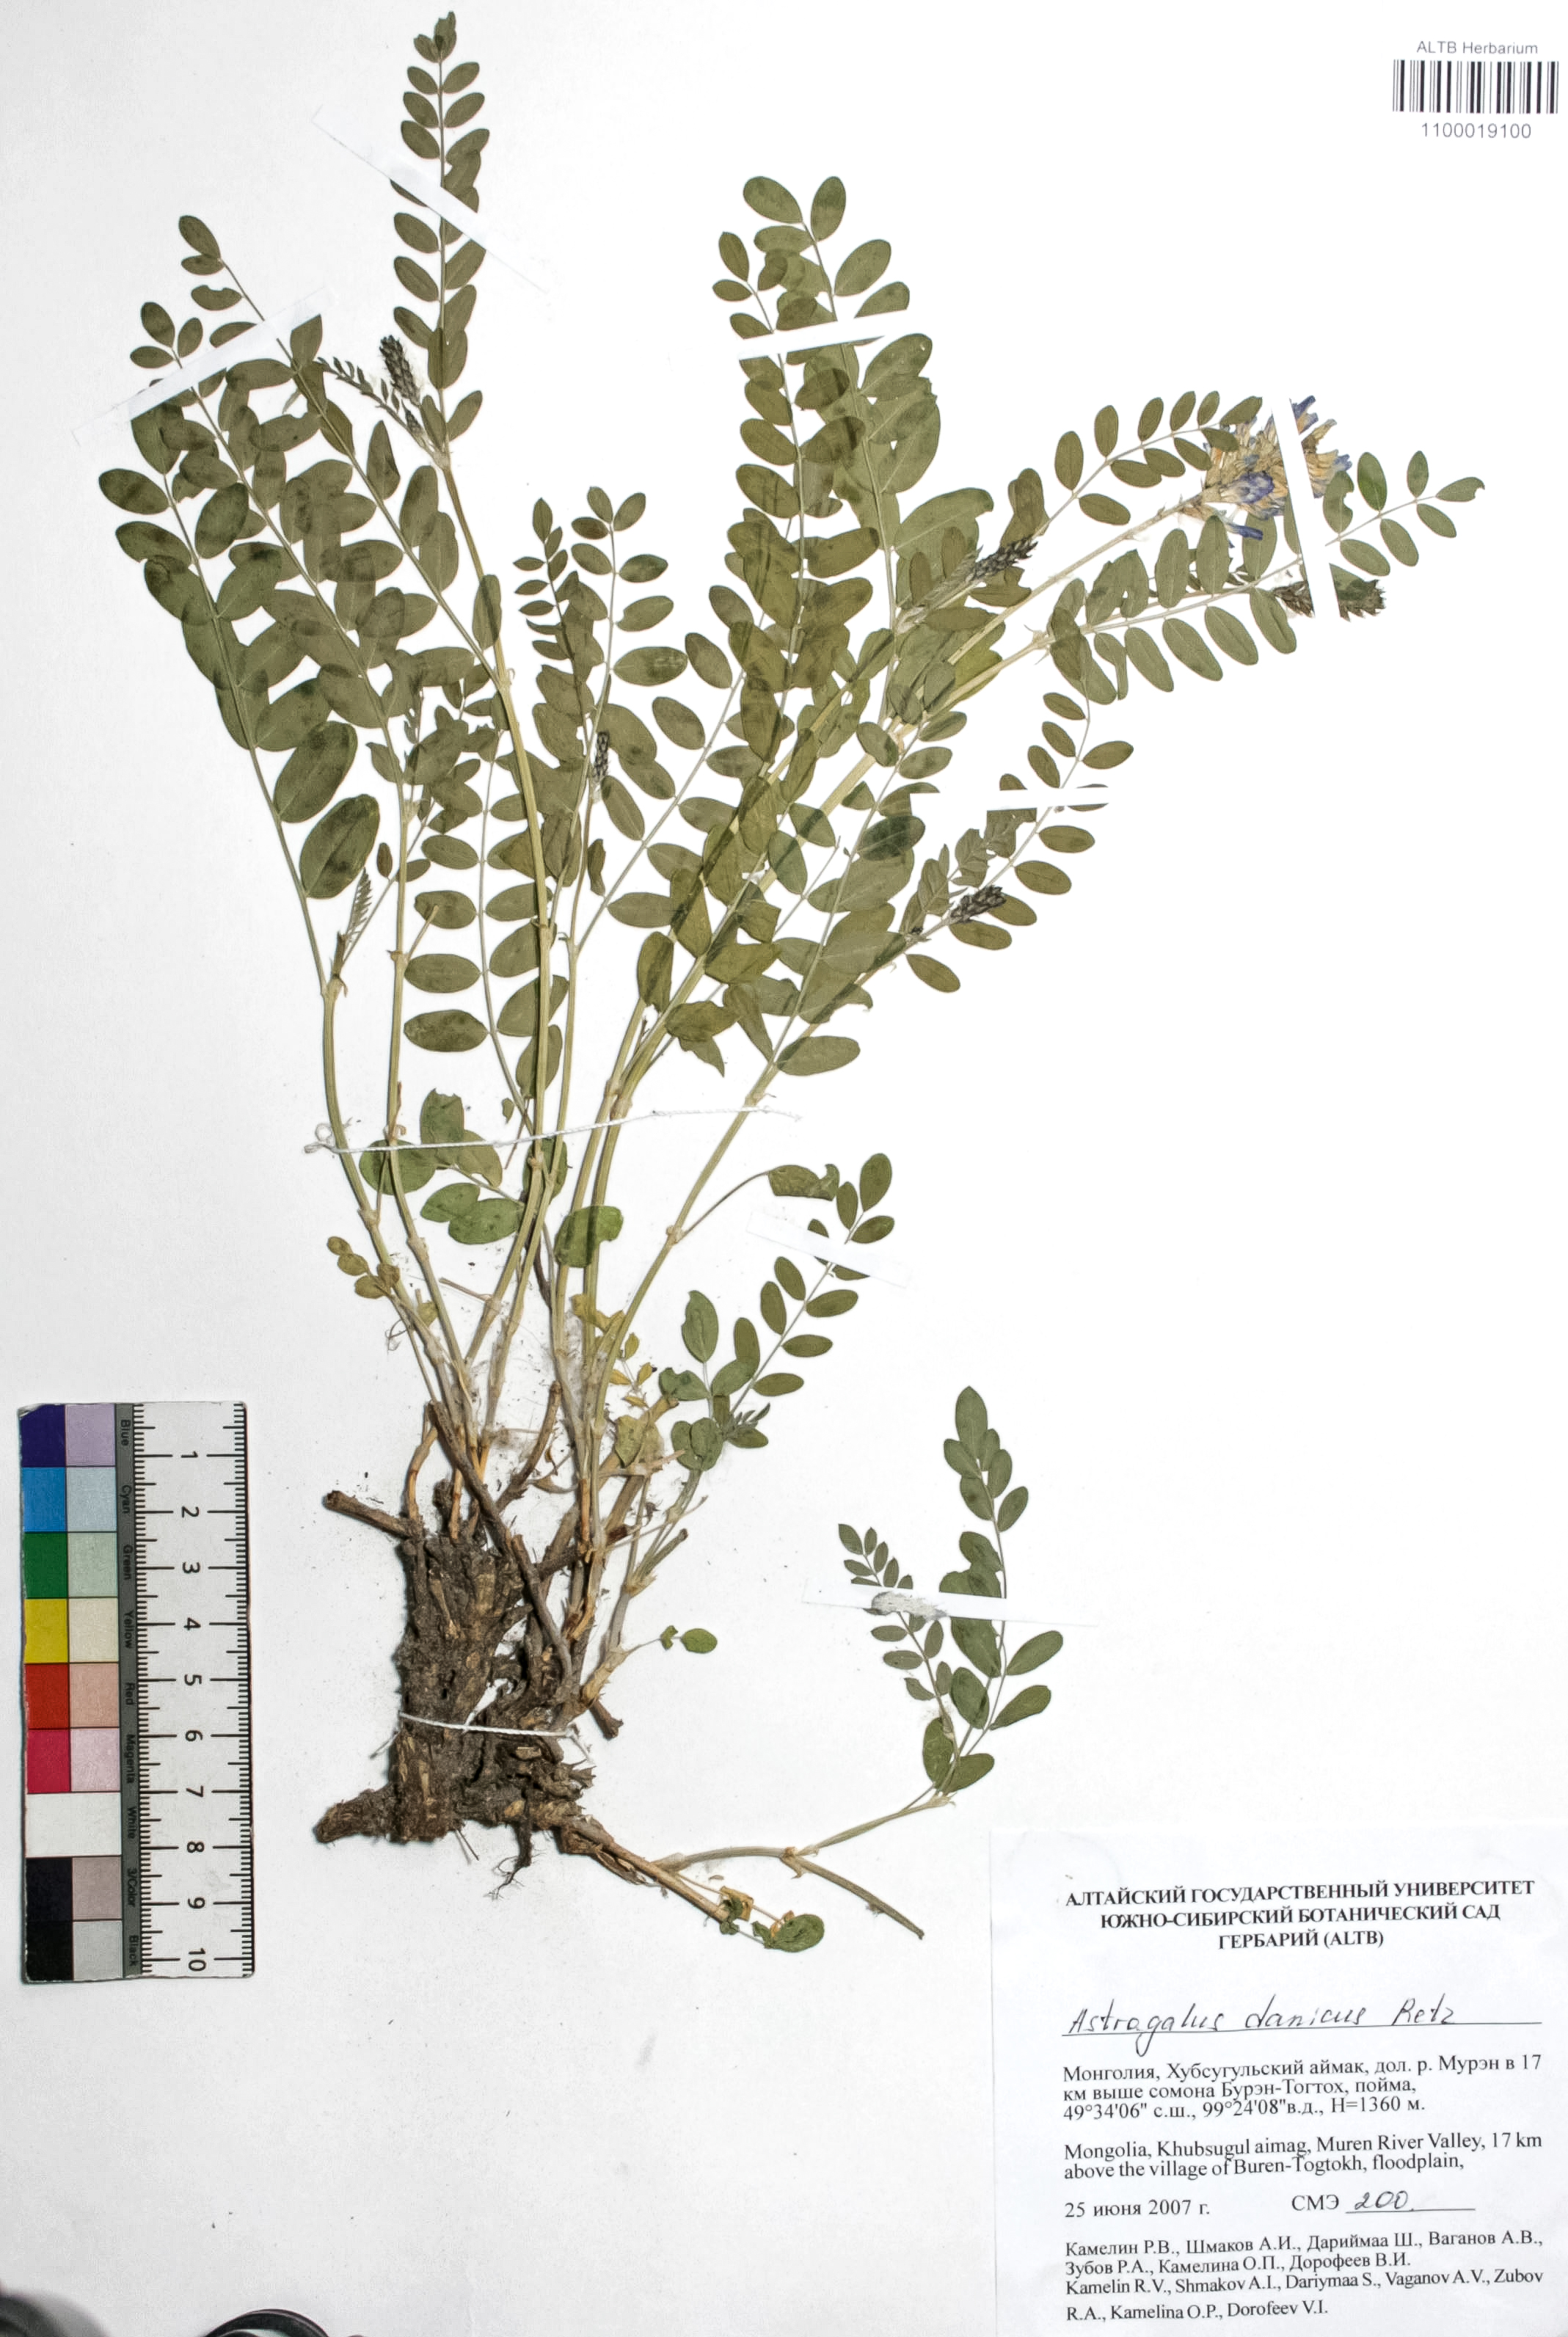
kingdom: Plantae
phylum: Tracheophyta
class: Magnoliopsida
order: Fabales
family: Fabaceae
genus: Astragalus
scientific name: Astragalus danicus
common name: Purple milk-vetch
